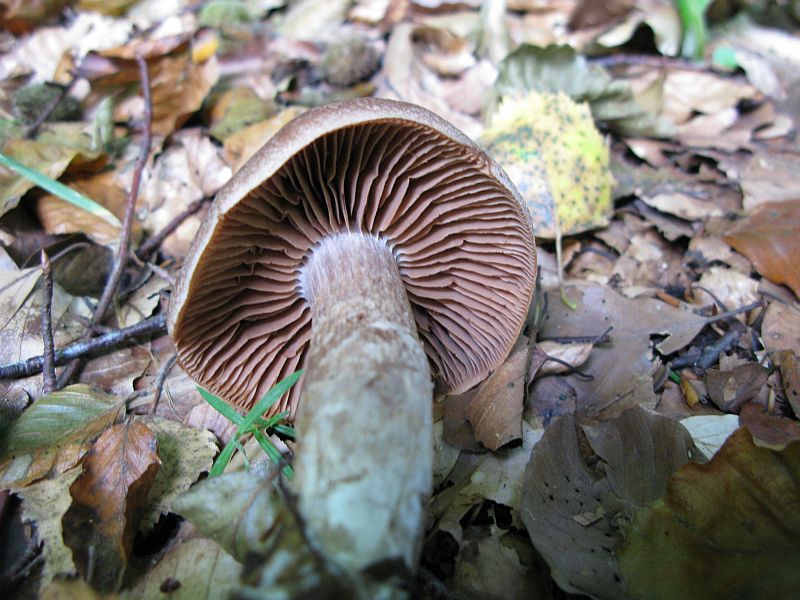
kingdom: Fungi
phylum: Basidiomycota
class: Agaricomycetes
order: Agaricales
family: Cortinariaceae
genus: Cortinarius
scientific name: Cortinarius geniculatus
